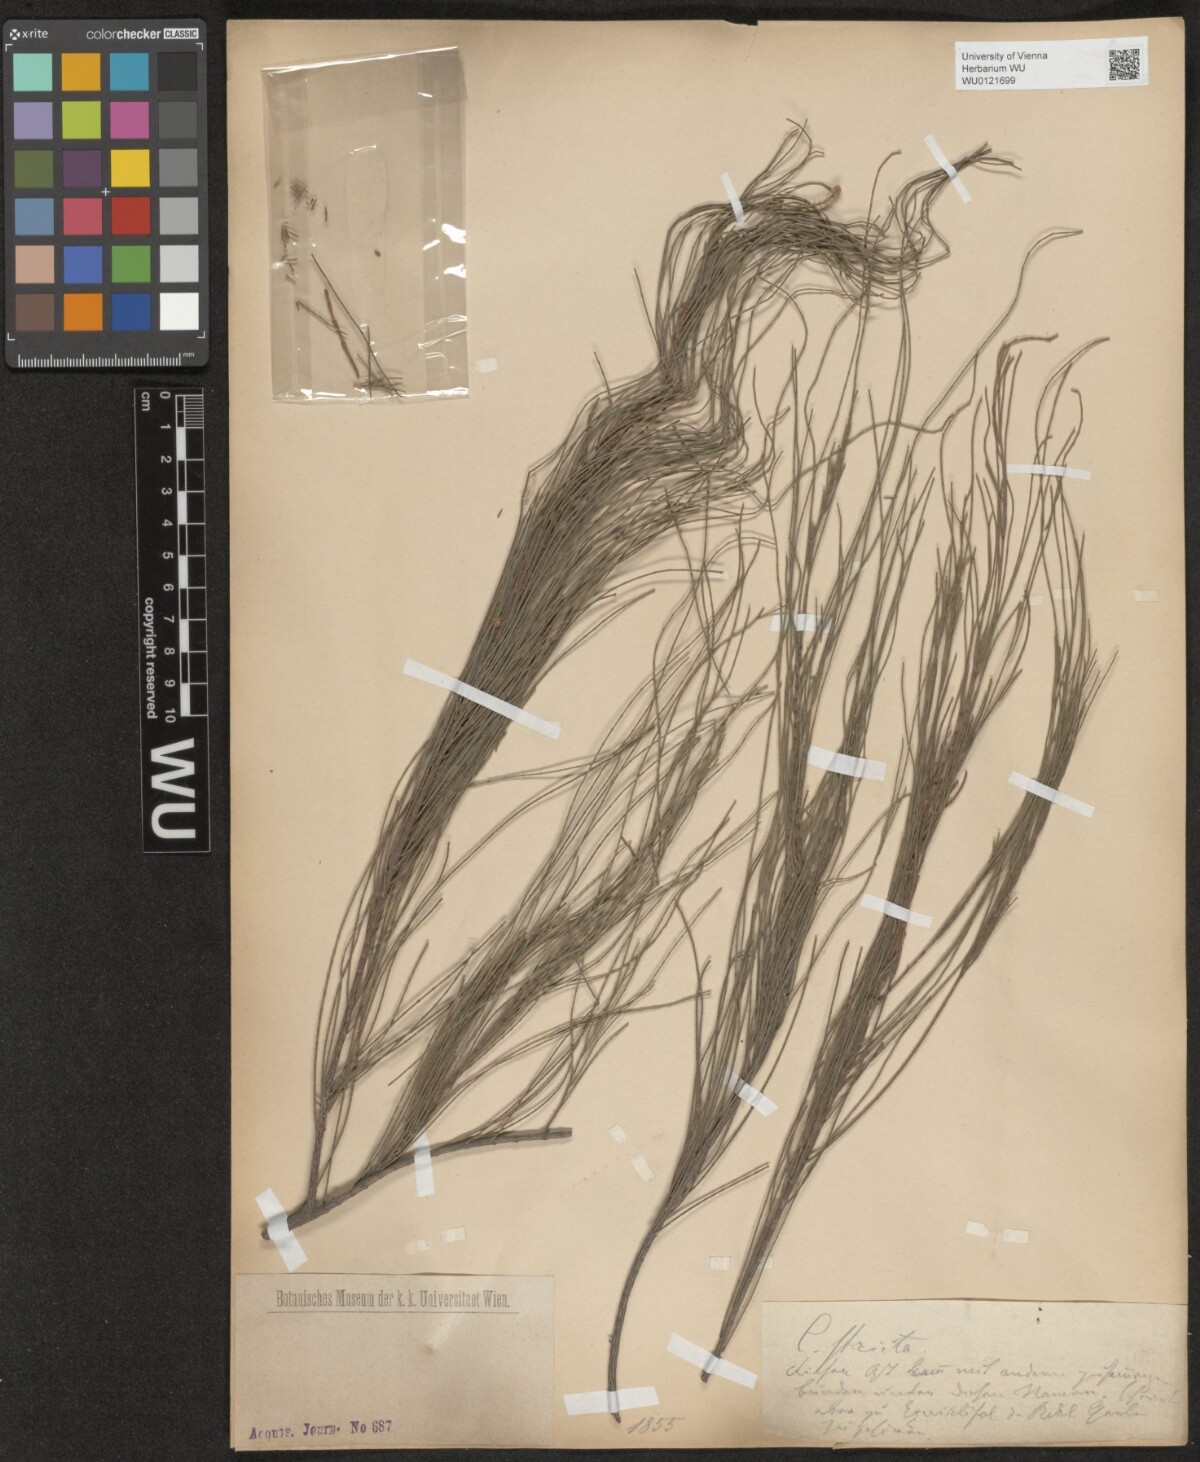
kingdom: Plantae
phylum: Tracheophyta
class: Magnoliopsida
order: Fagales
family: Casuarinaceae
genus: Casuarina
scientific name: Casuarina stricta
